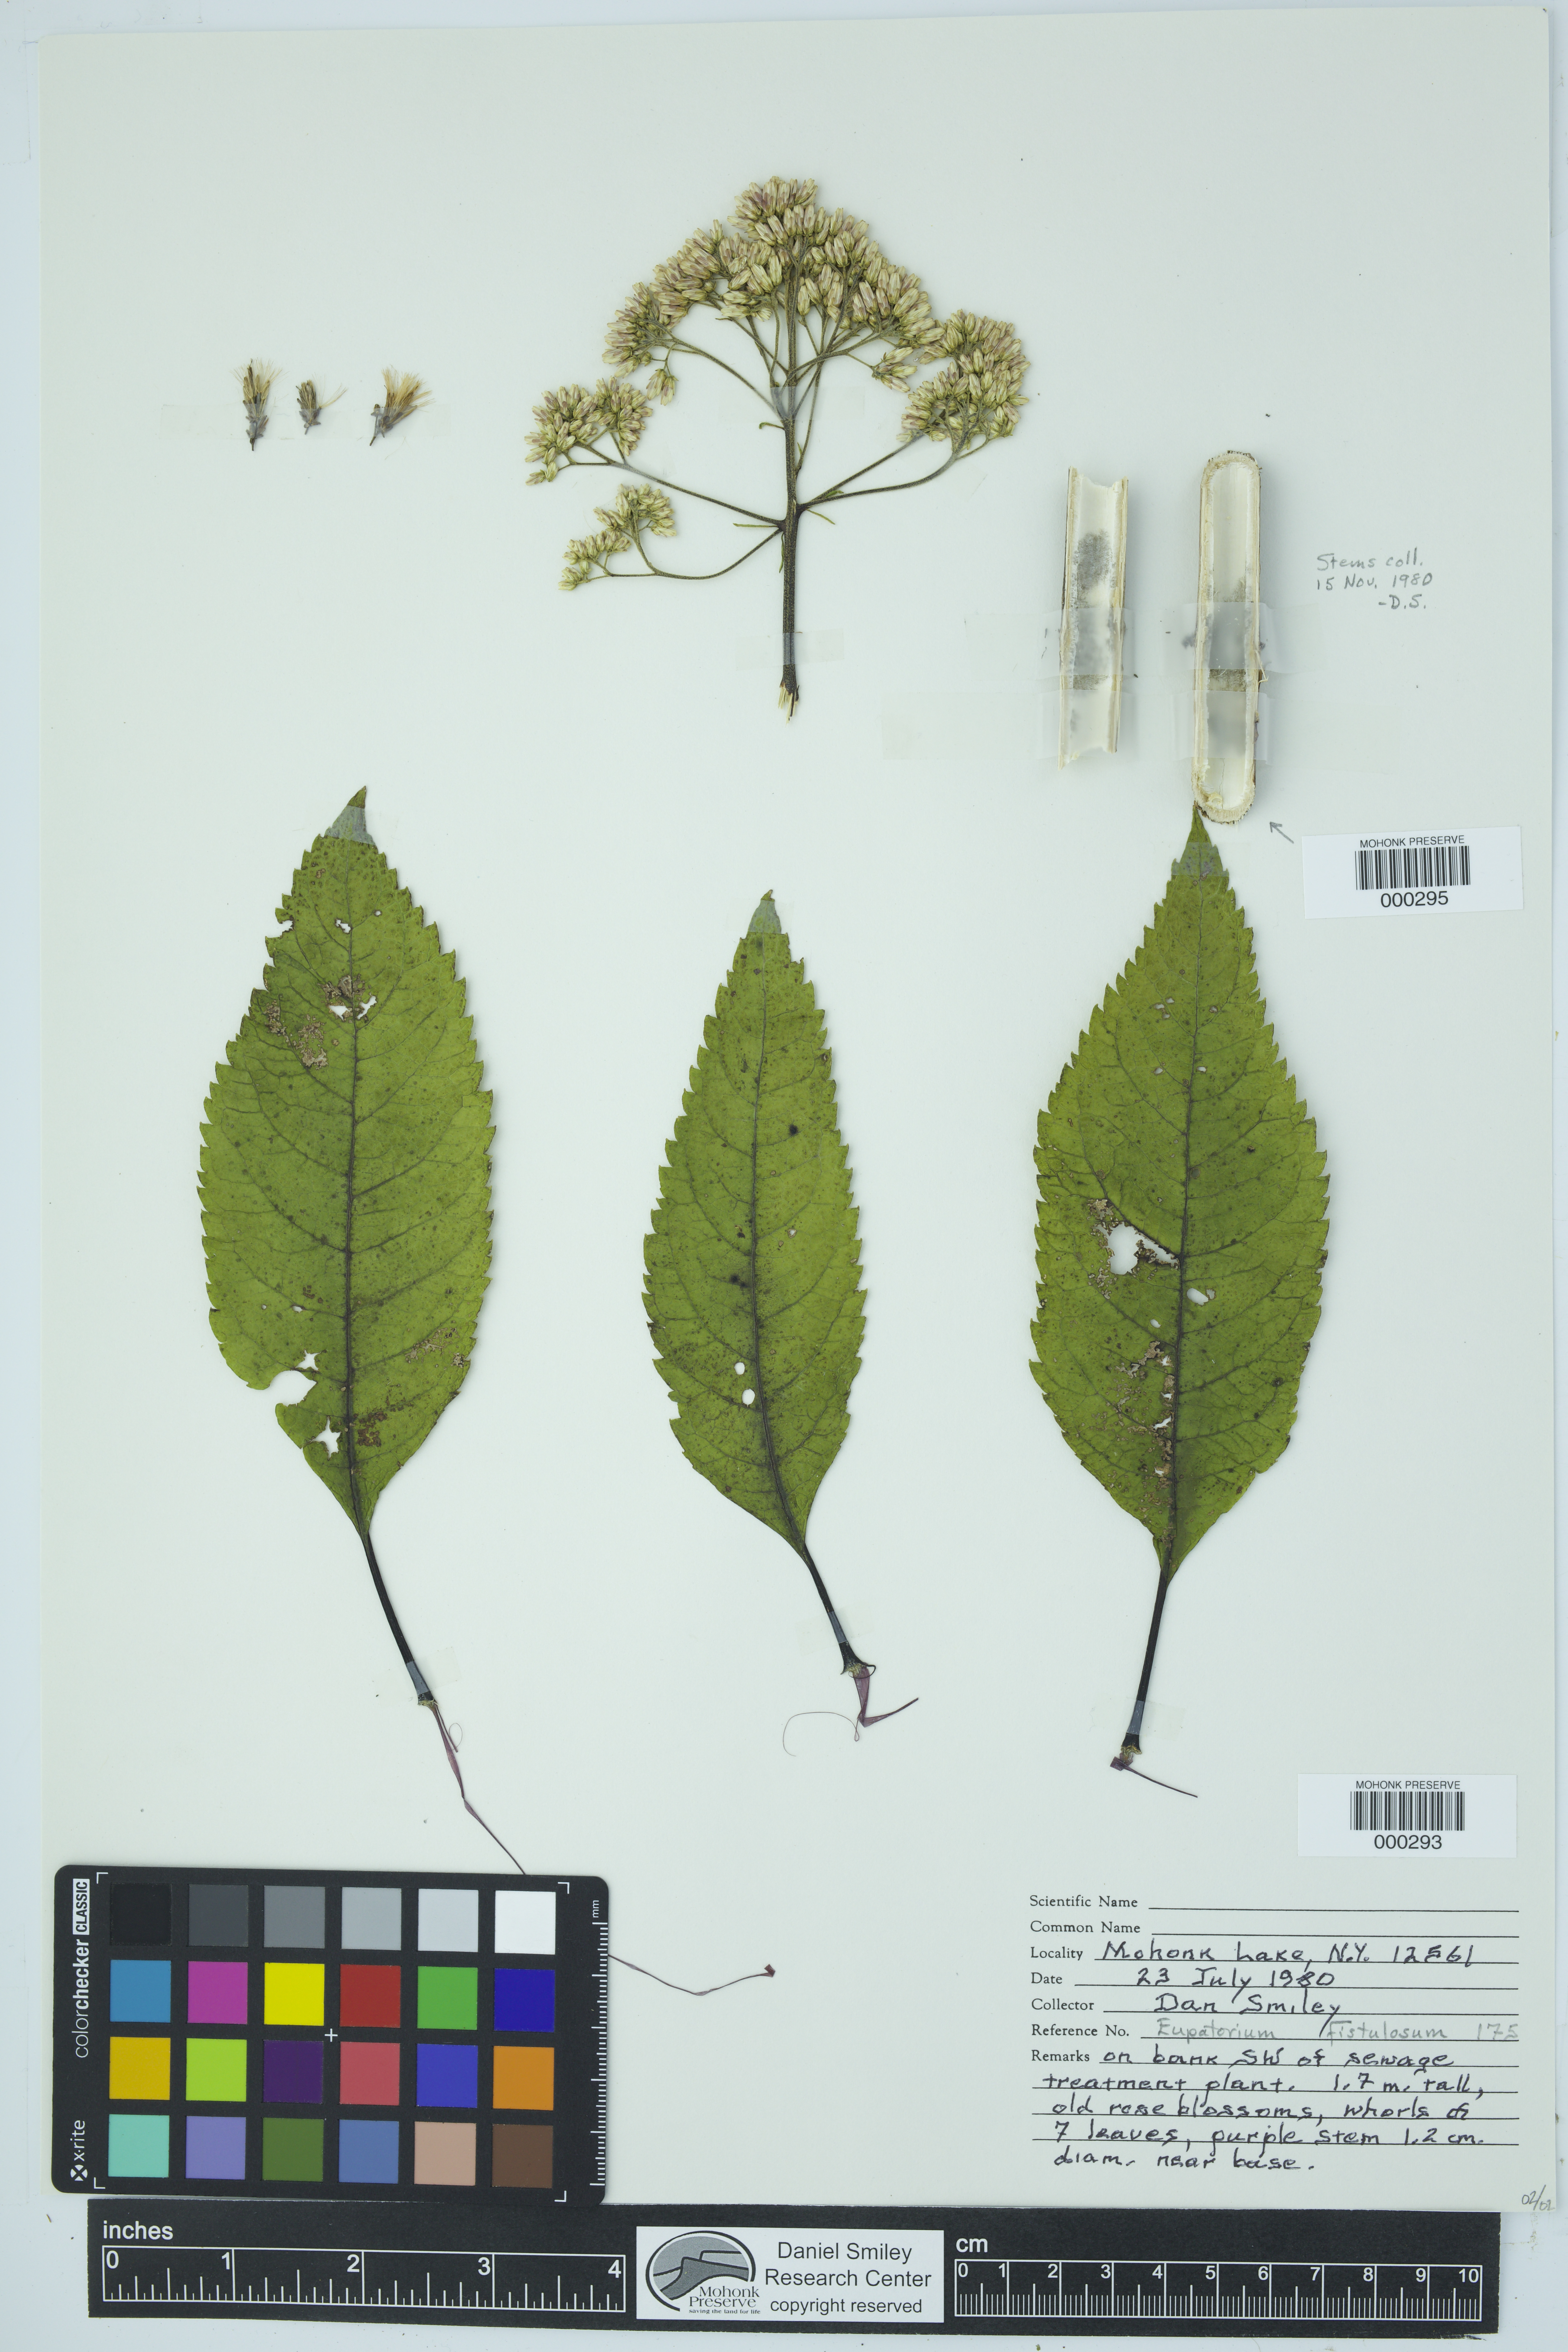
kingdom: Plantae
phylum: Tracheophyta
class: Magnoliopsida
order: Asterales
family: Asteraceae
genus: Eutrochium
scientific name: Eutrochium fistulosum
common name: Trumpetweed
